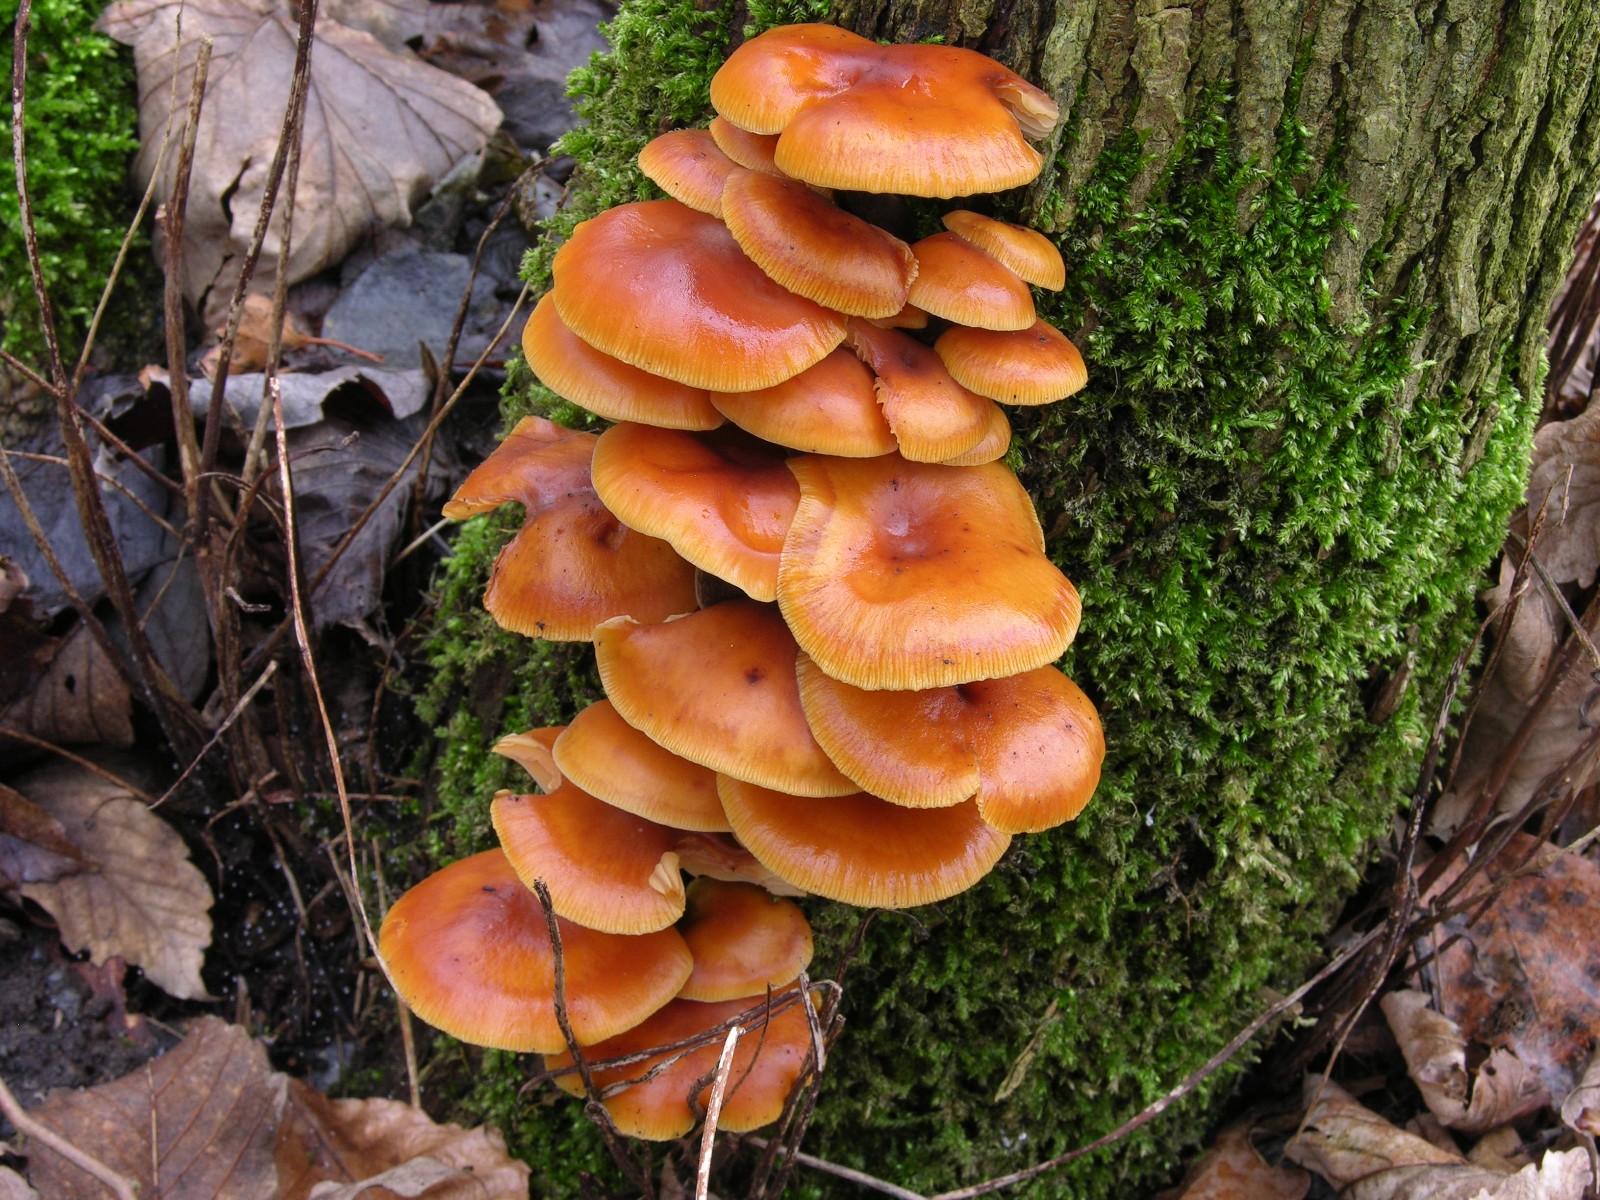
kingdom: Fungi
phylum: Basidiomycota
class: Agaricomycetes
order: Agaricales
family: Physalacriaceae
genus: Flammulina
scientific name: Flammulina velutipes
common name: gul fløjlsfod
